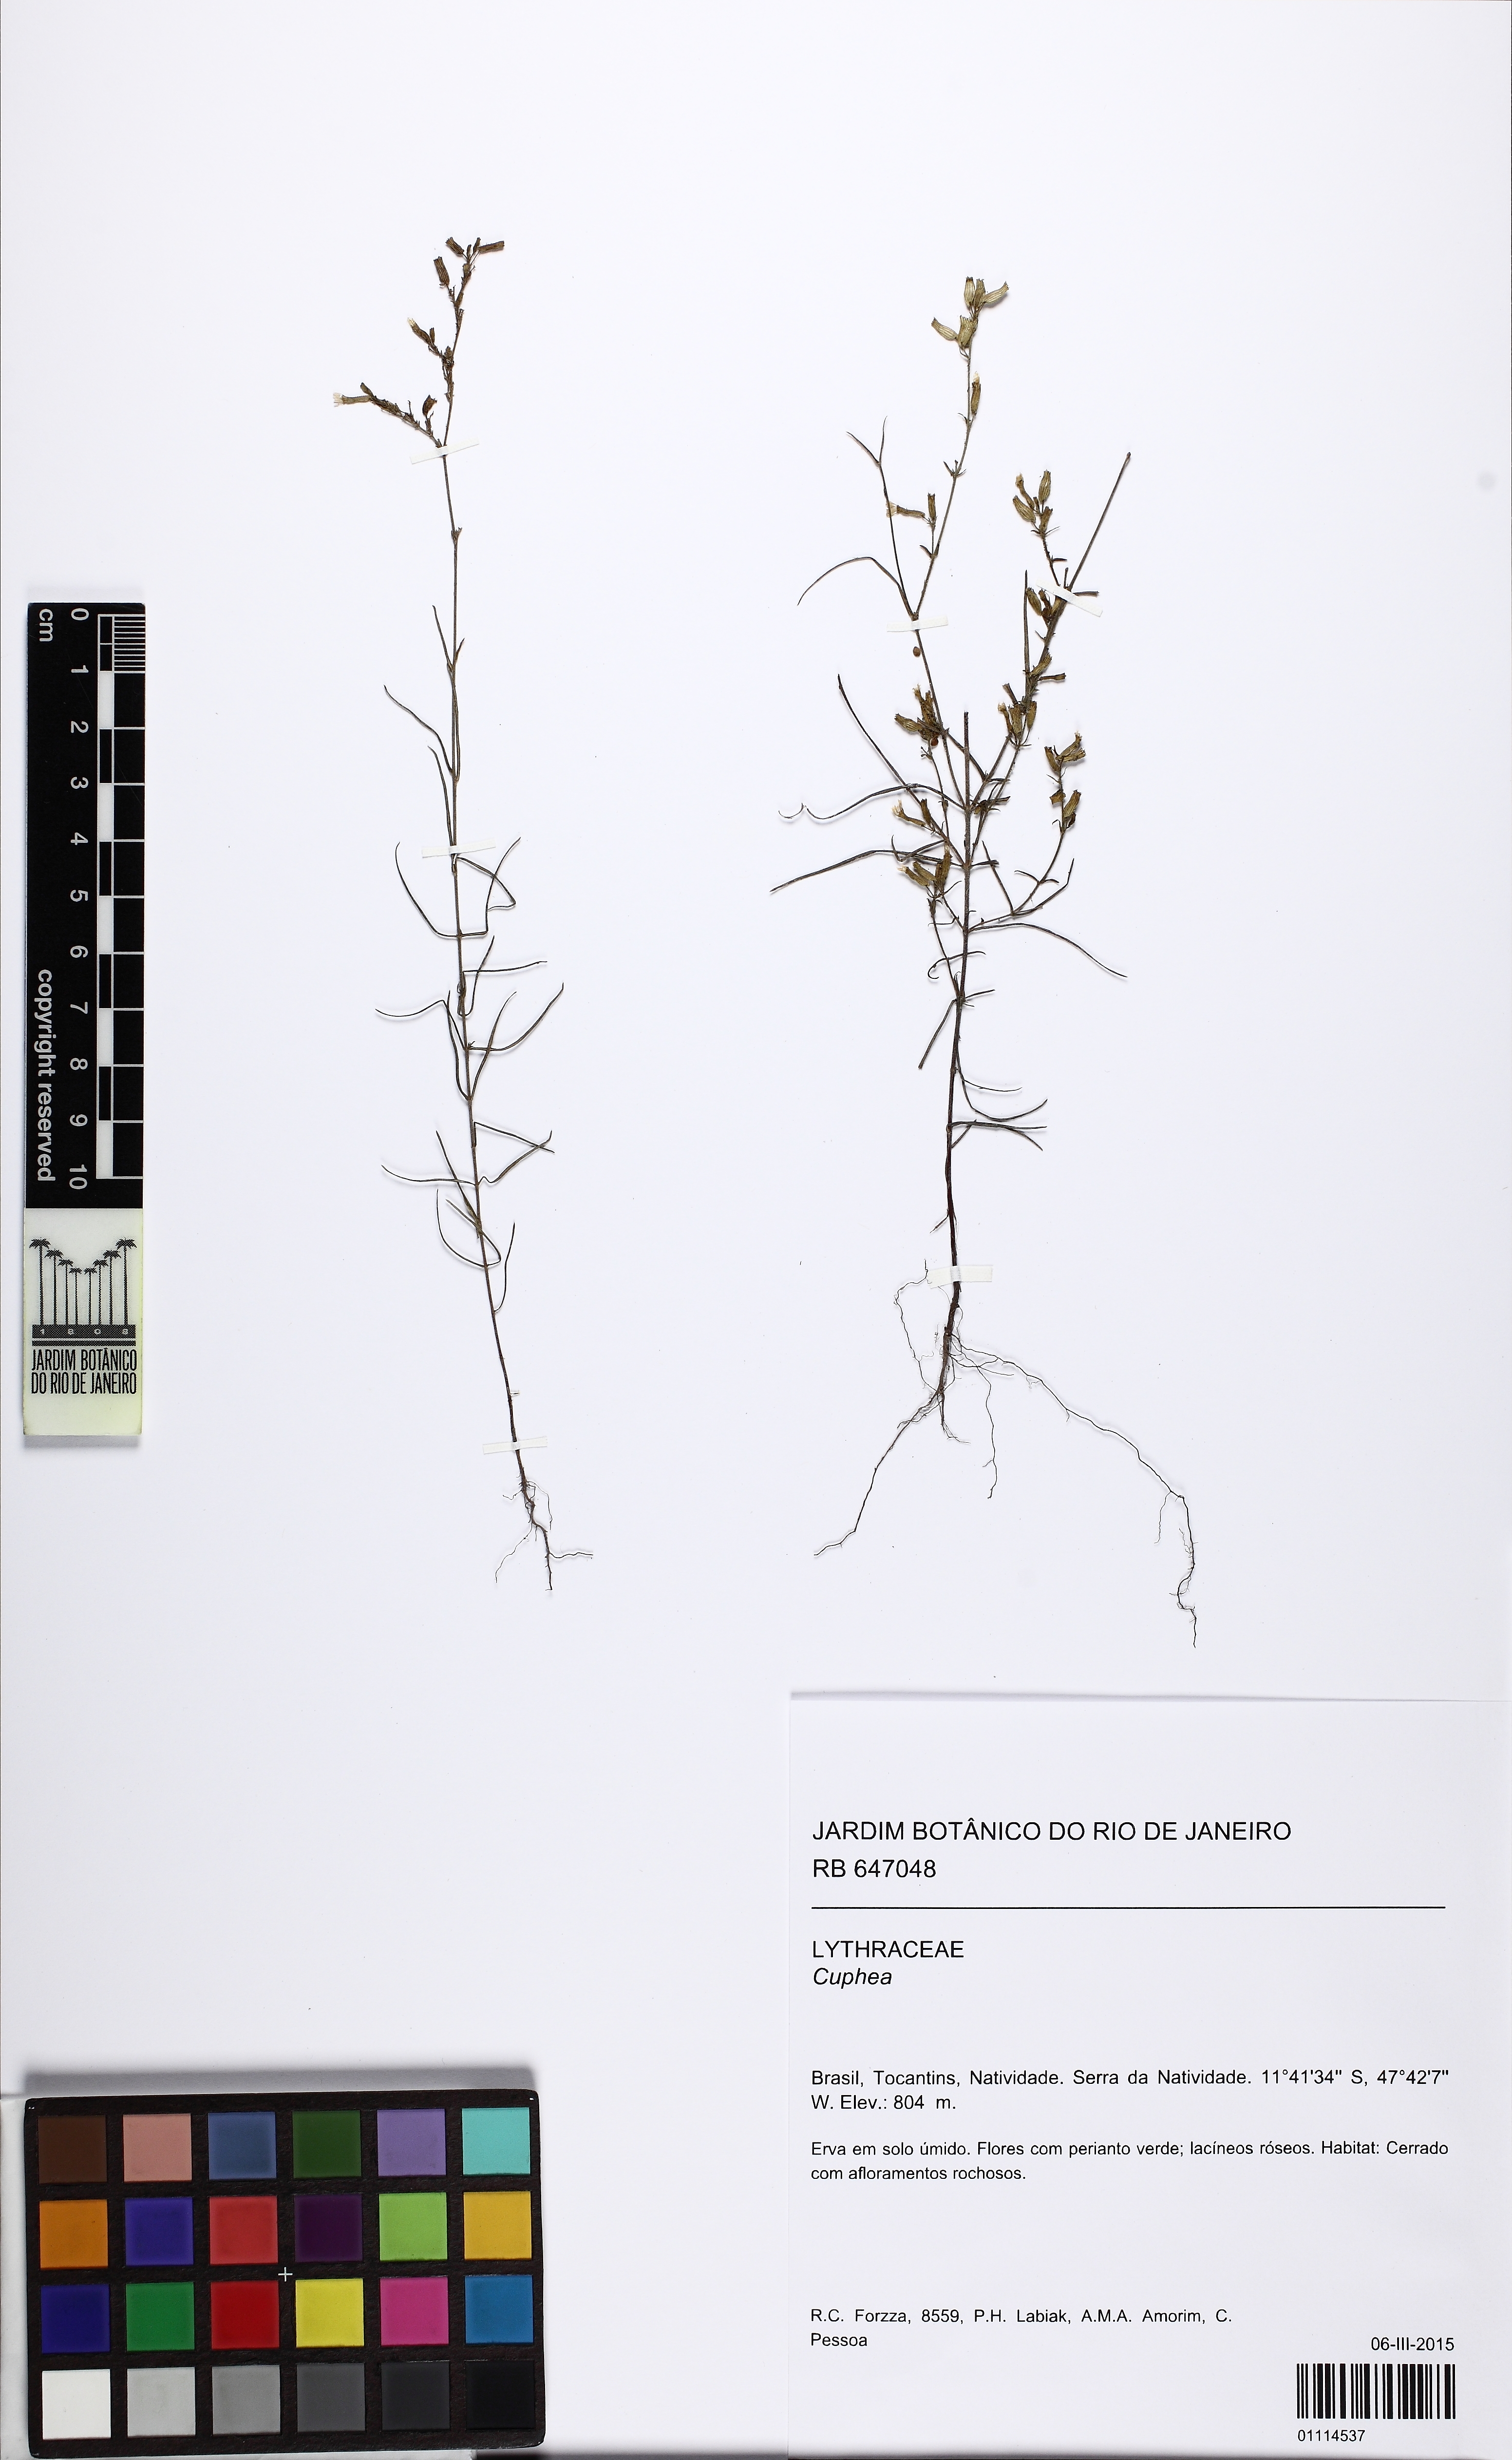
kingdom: Plantae
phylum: Tracheophyta
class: Magnoliopsida
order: Myrtales
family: Lythraceae
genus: Cuphea
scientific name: Cuphea
